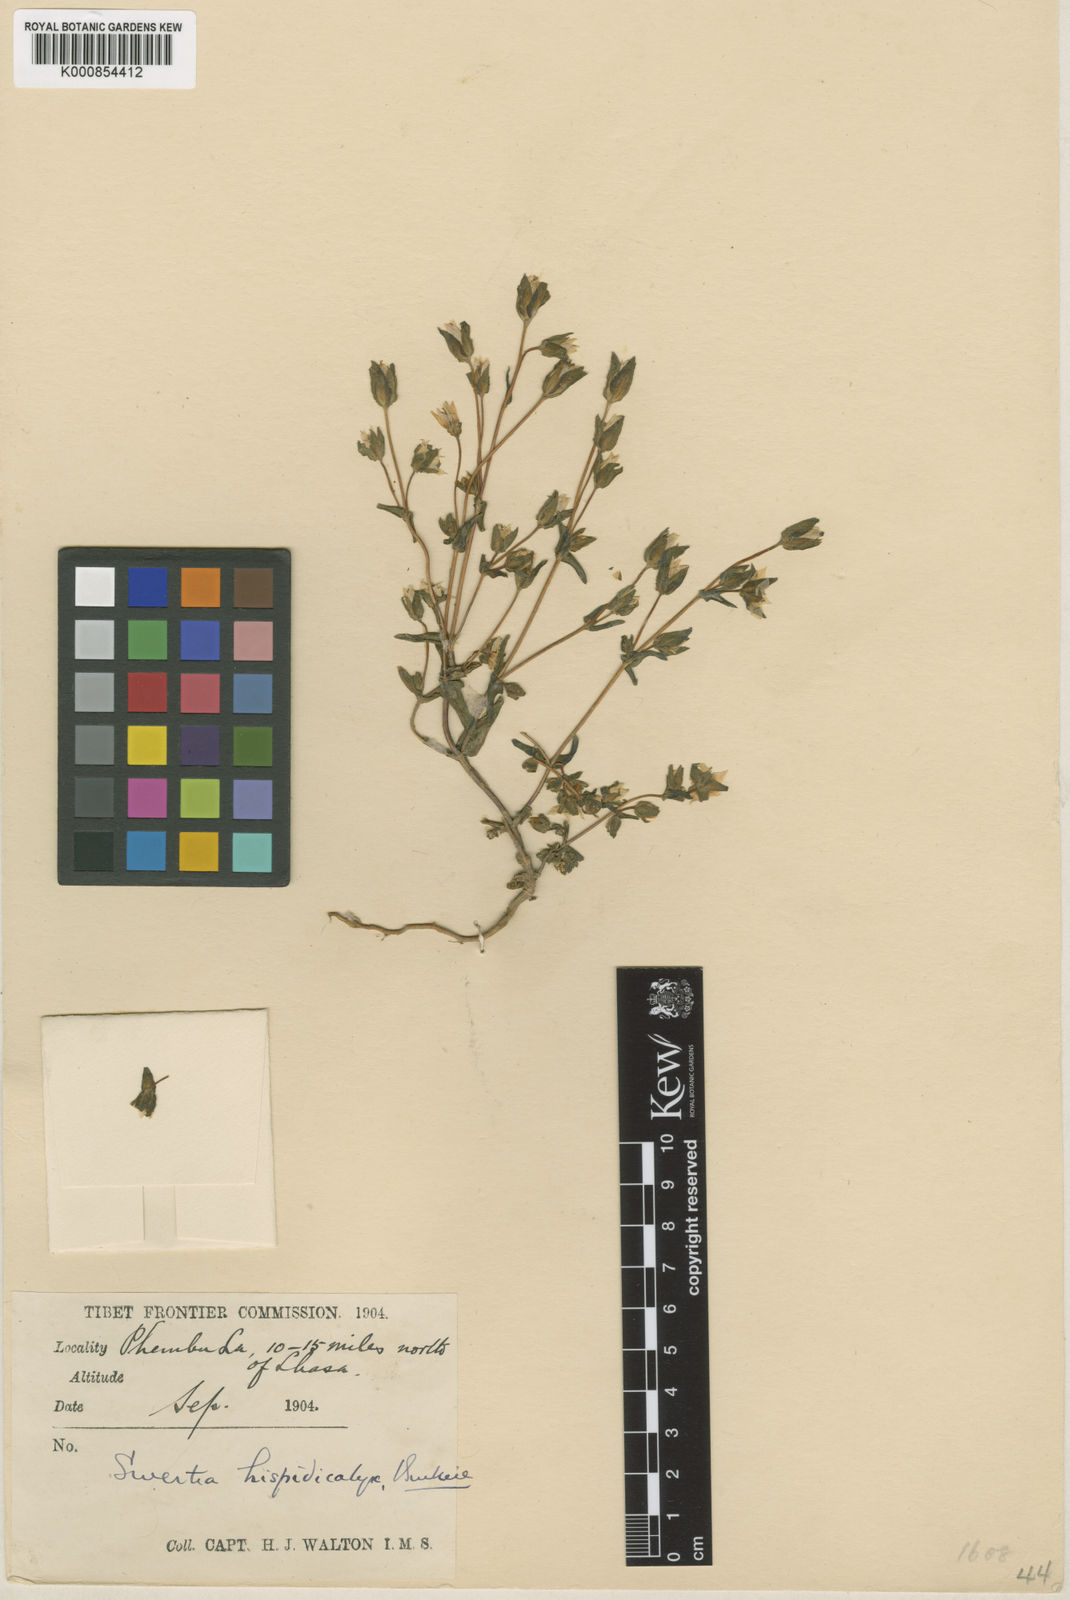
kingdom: Plantae
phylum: Tracheophyta
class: Magnoliopsida
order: Gentianales
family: Gentianaceae
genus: Swertia
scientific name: Swertia hispidicalyx
